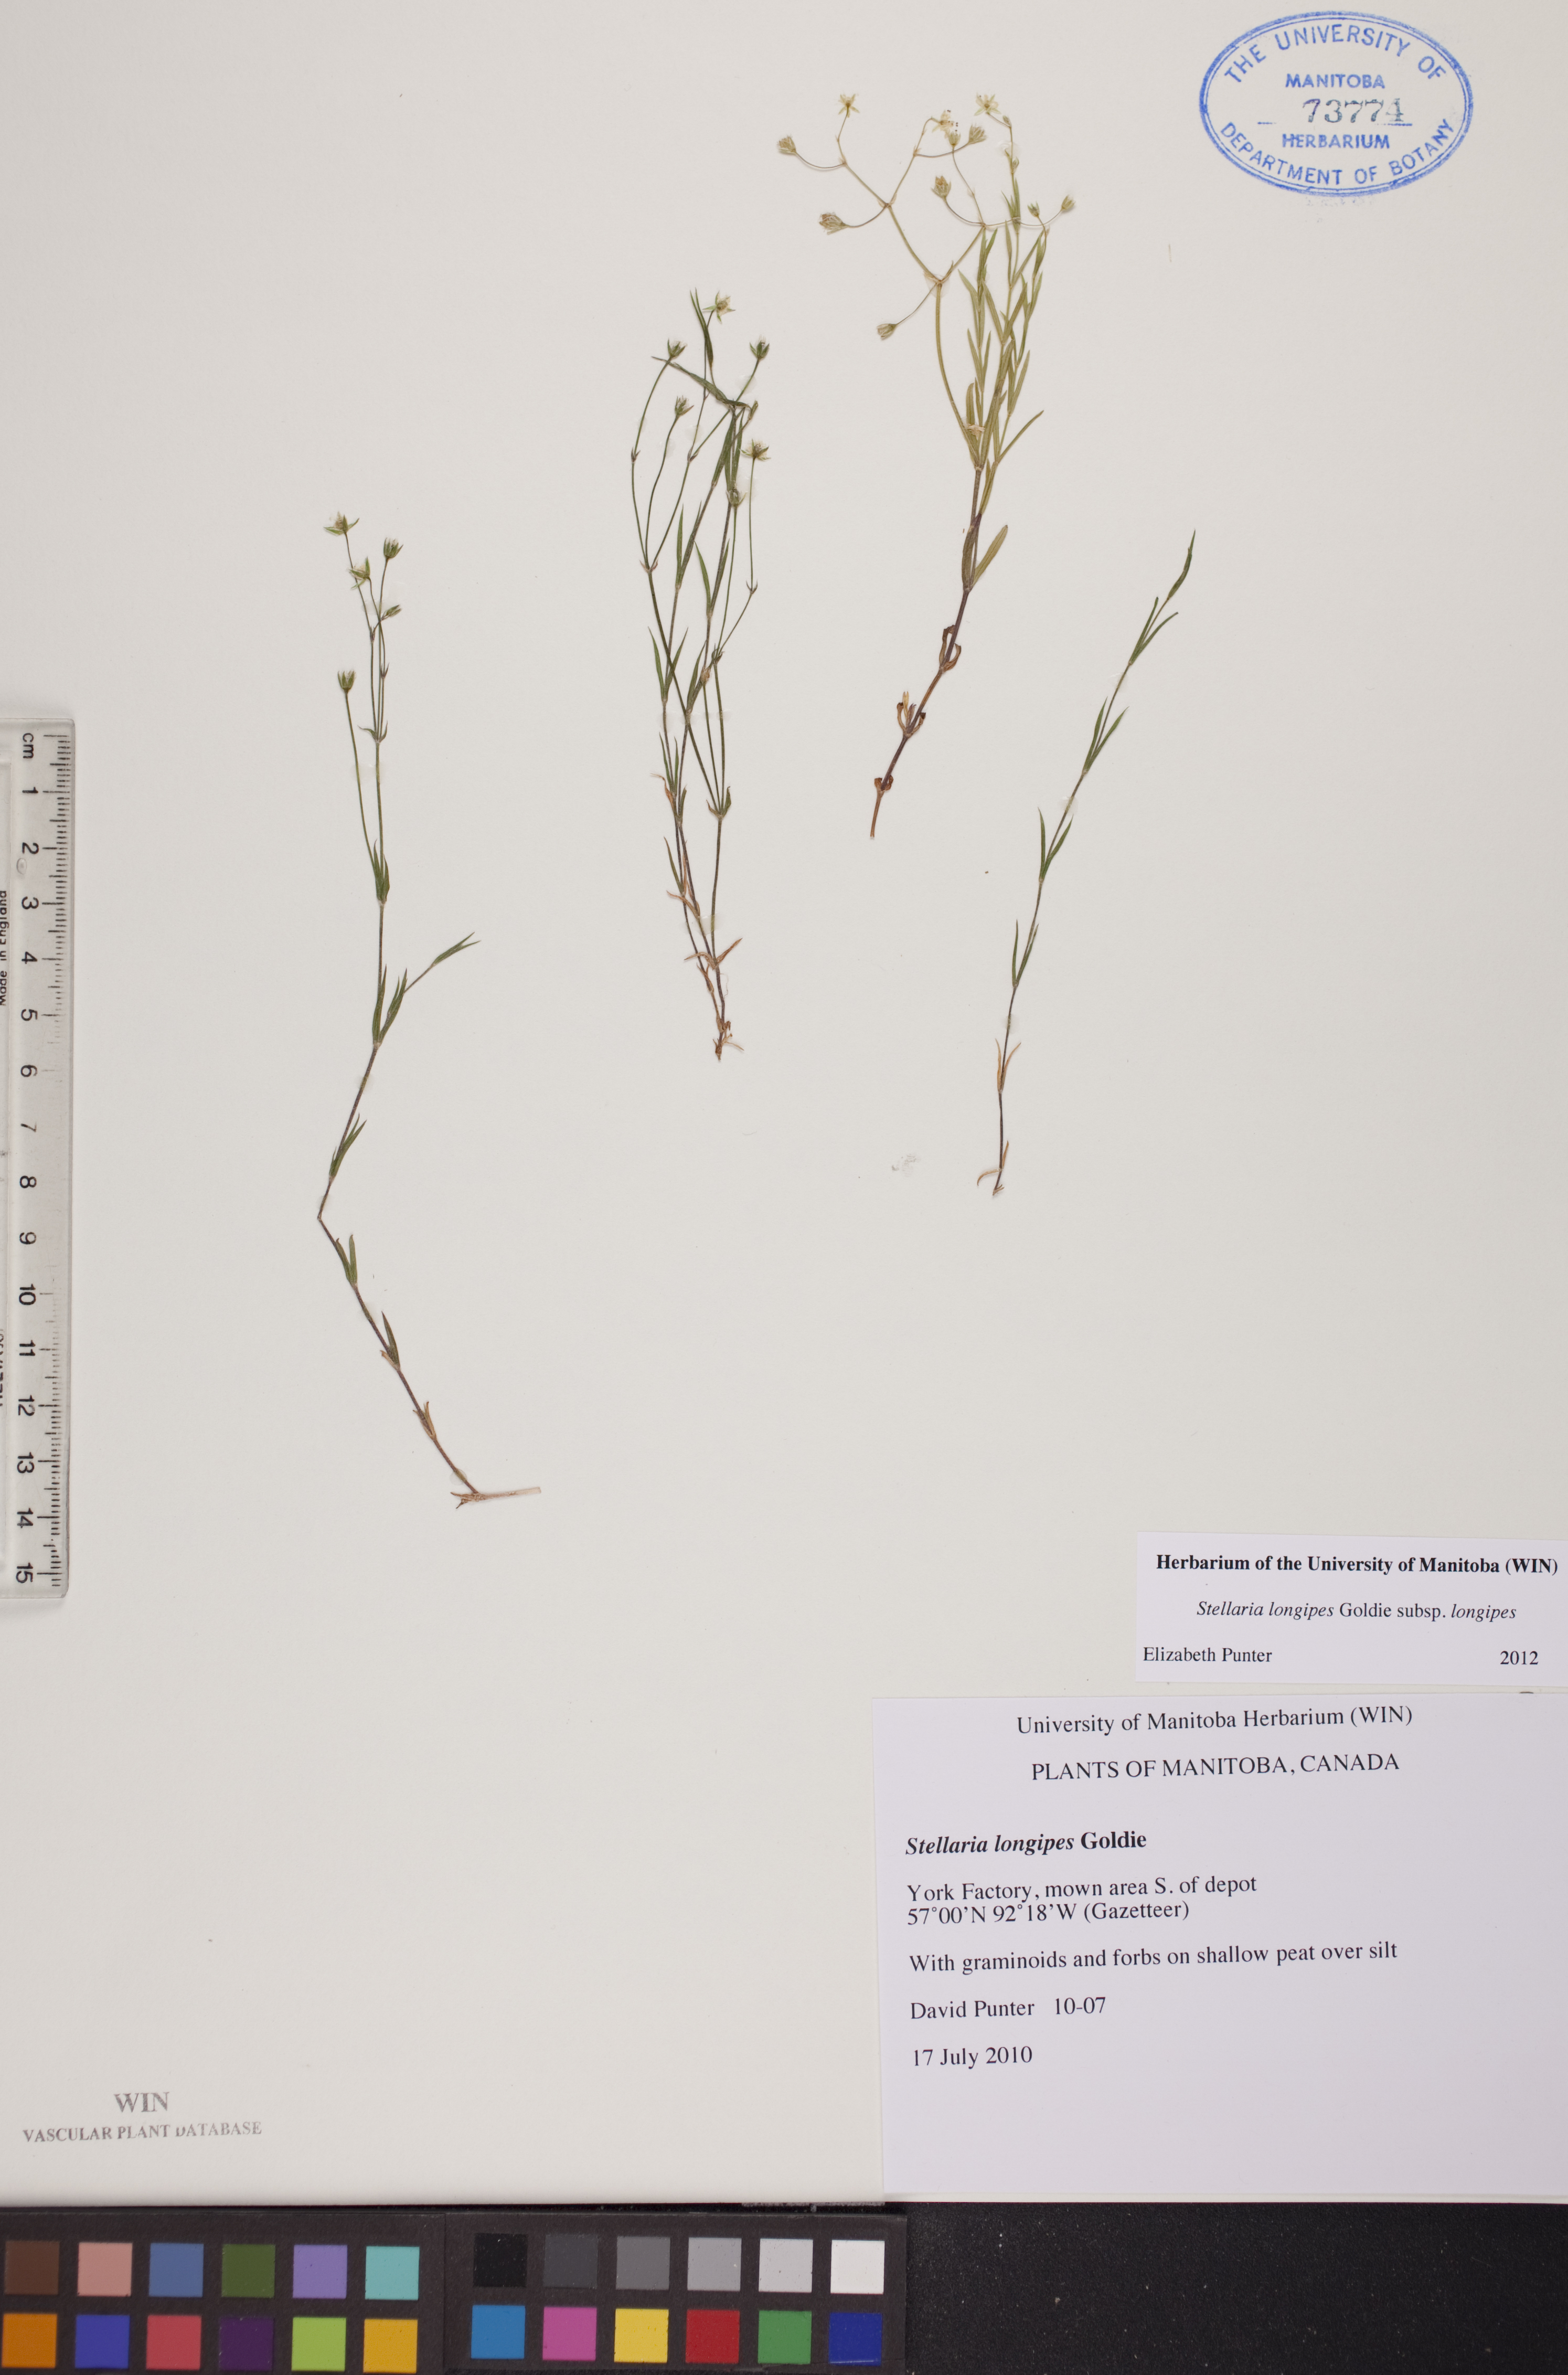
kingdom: Plantae
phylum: Tracheophyta
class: Magnoliopsida
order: Caryophyllales
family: Caryophyllaceae
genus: Stellaria
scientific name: Stellaria longipes
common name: Goldie's starwort
